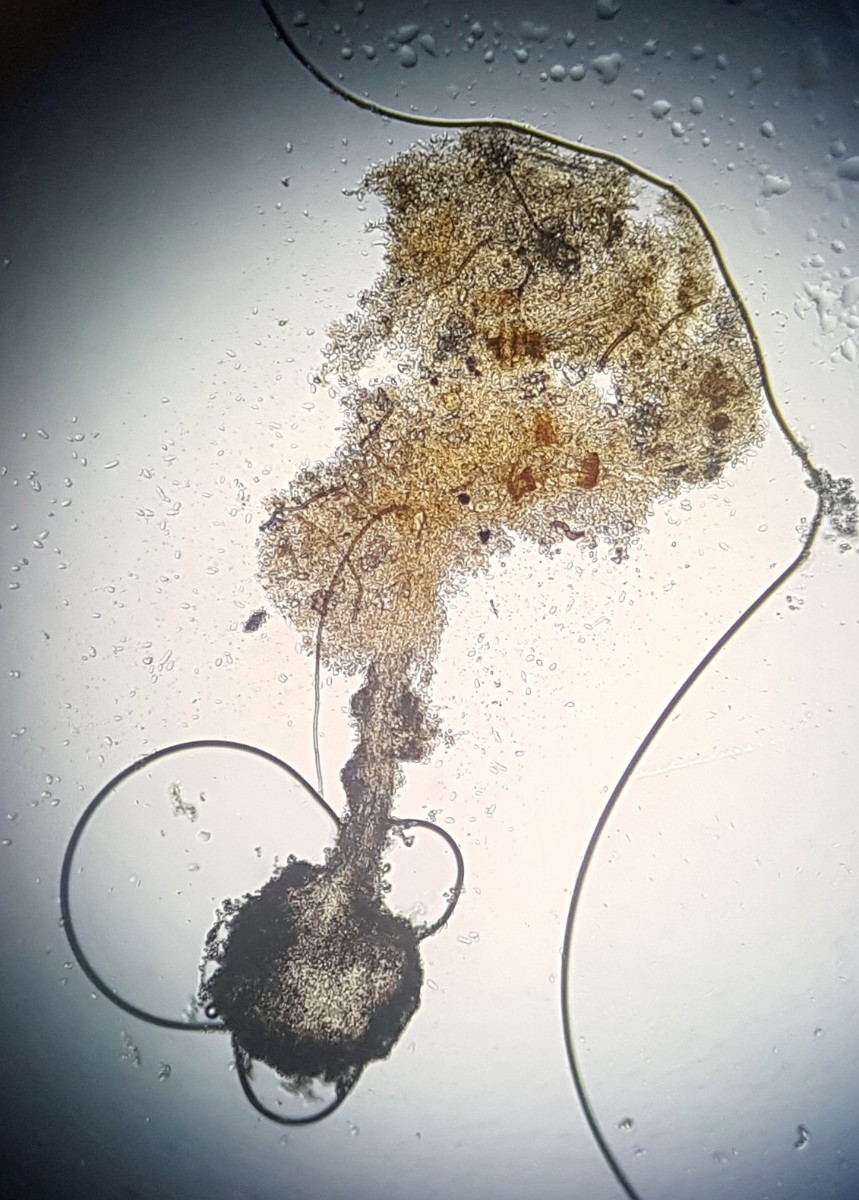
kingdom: Fungi
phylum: Ascomycota
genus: Sphaeridium
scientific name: Sphaeridium candidulum
